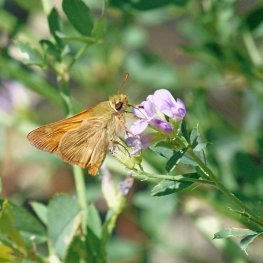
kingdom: Animalia
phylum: Arthropoda
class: Insecta
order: Lepidoptera
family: Hesperiidae
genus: Ochlodes
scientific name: Ochlodes sylvanoides
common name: Woodland Skipper
